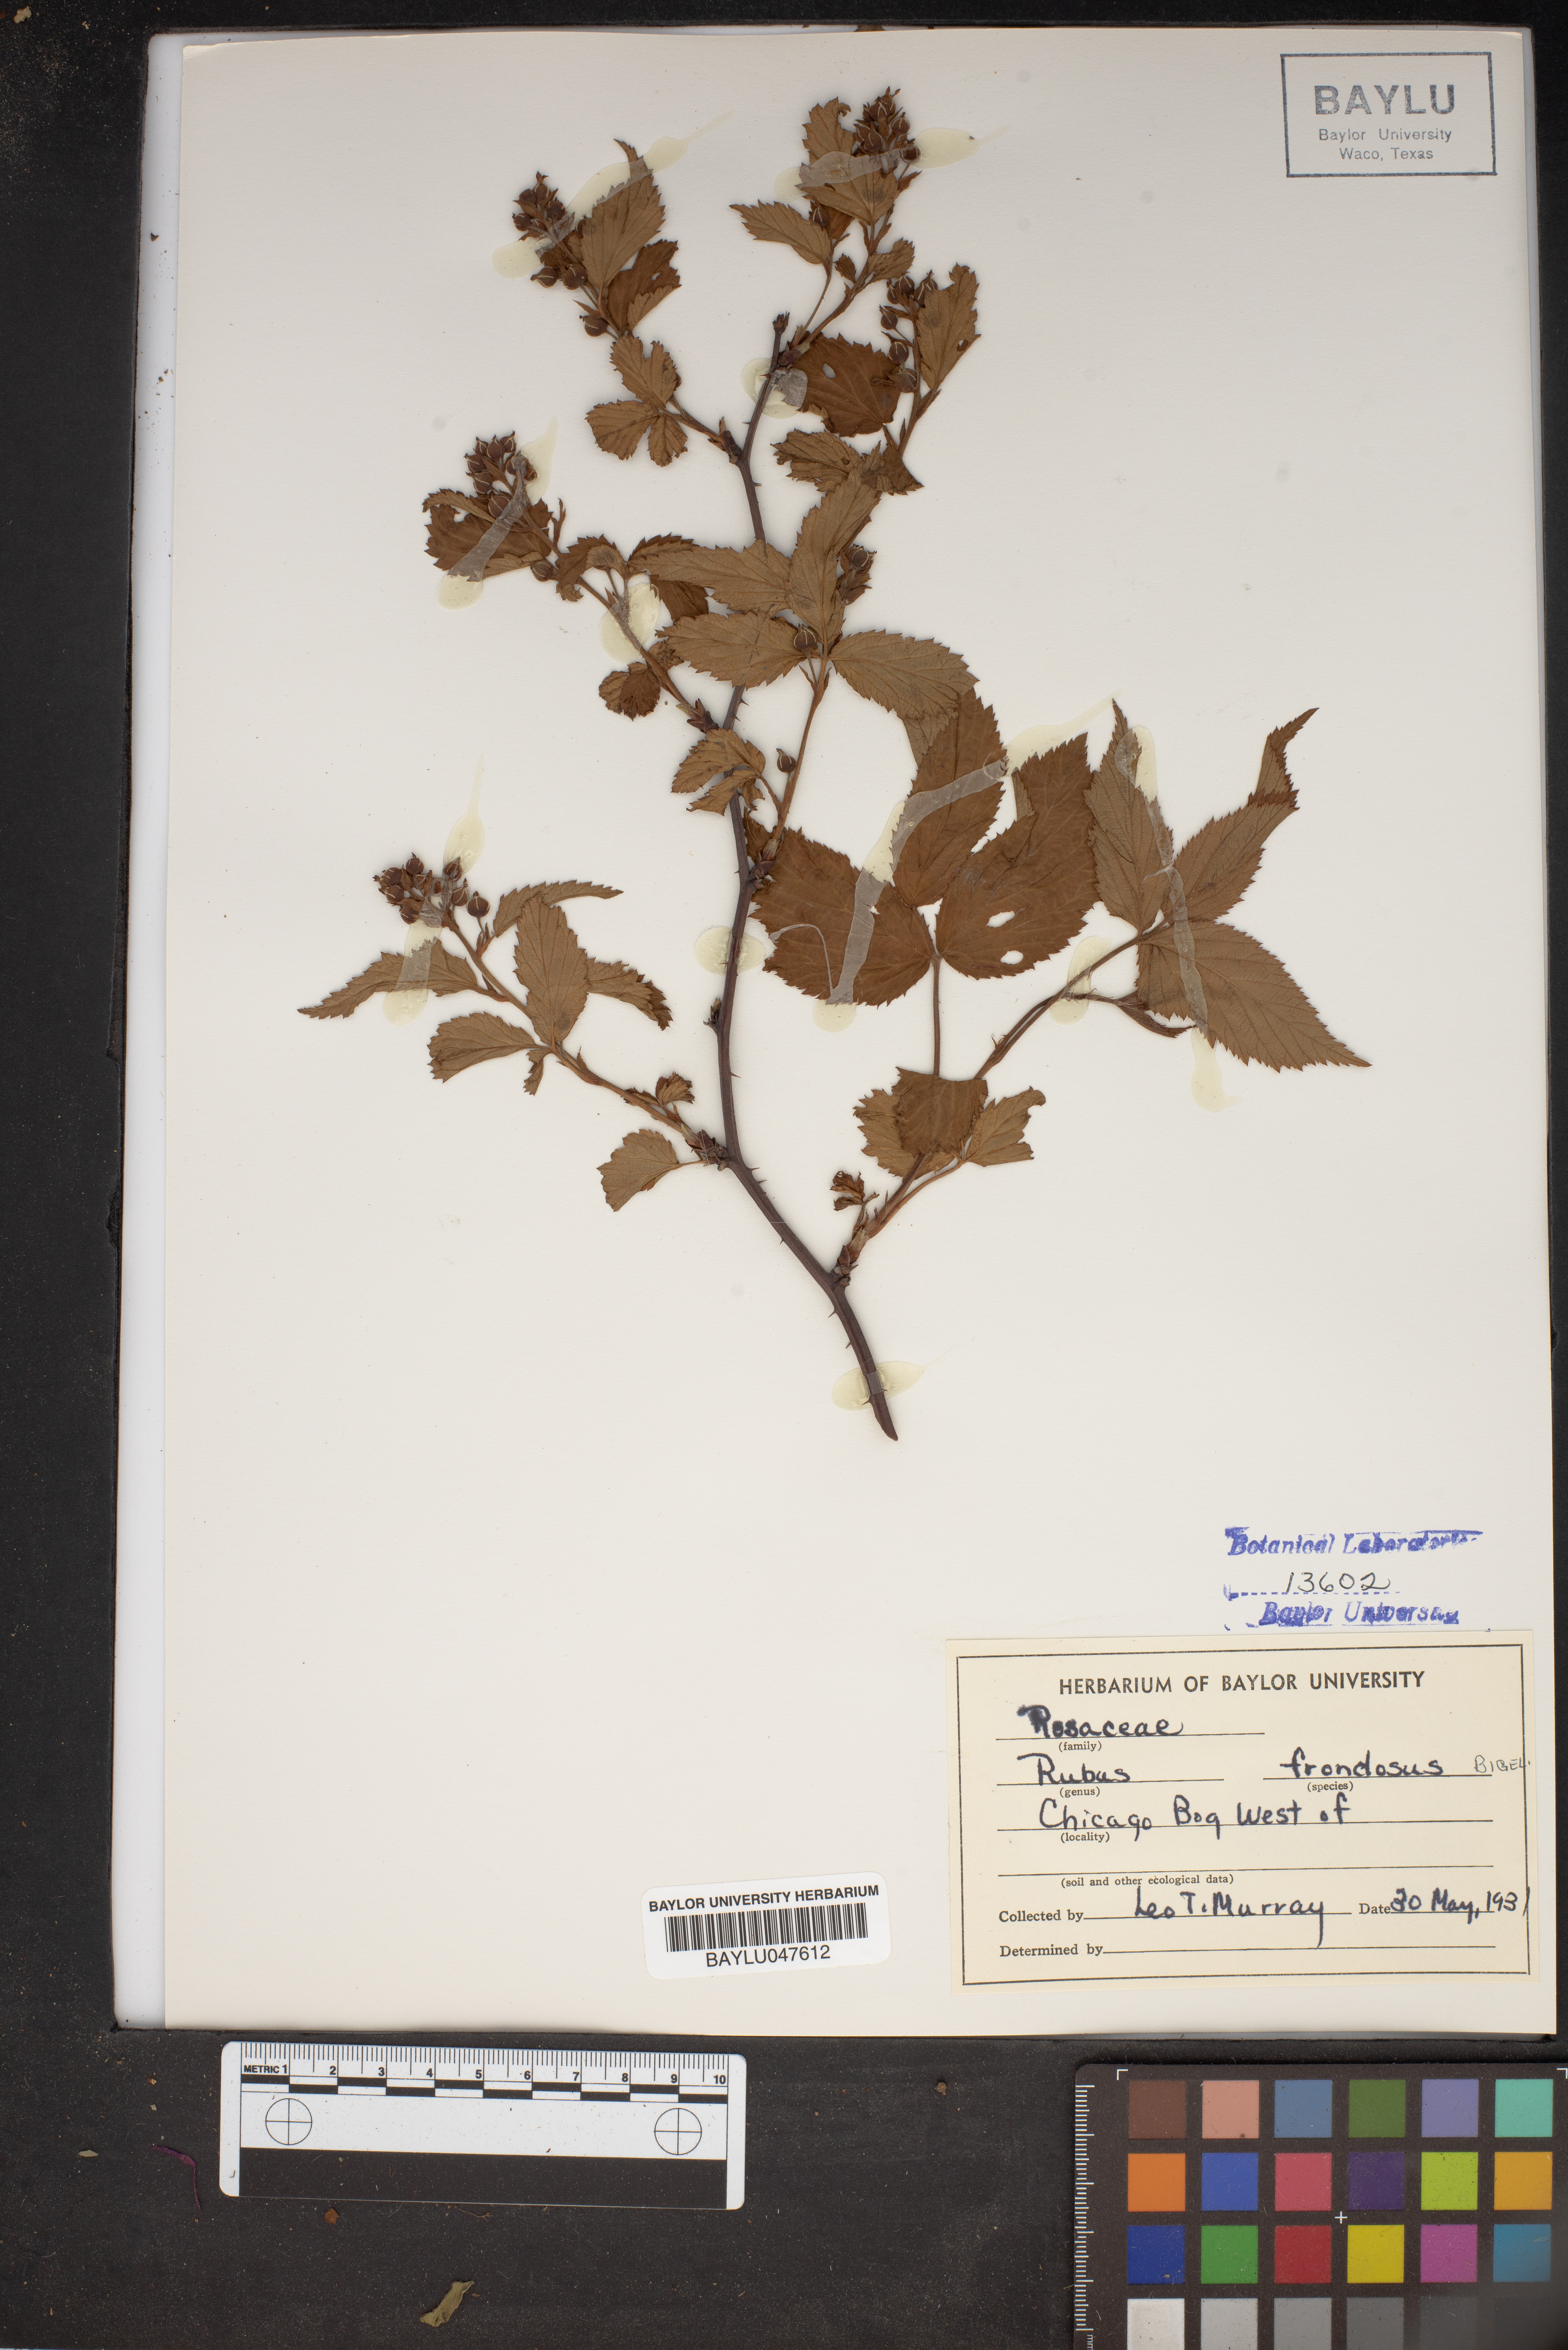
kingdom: Plantae
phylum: Tracheophyta
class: Magnoliopsida
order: Rosales
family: Rosaceae
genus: Rubus
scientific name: Rubus frondosus
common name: Yankee blackberry
